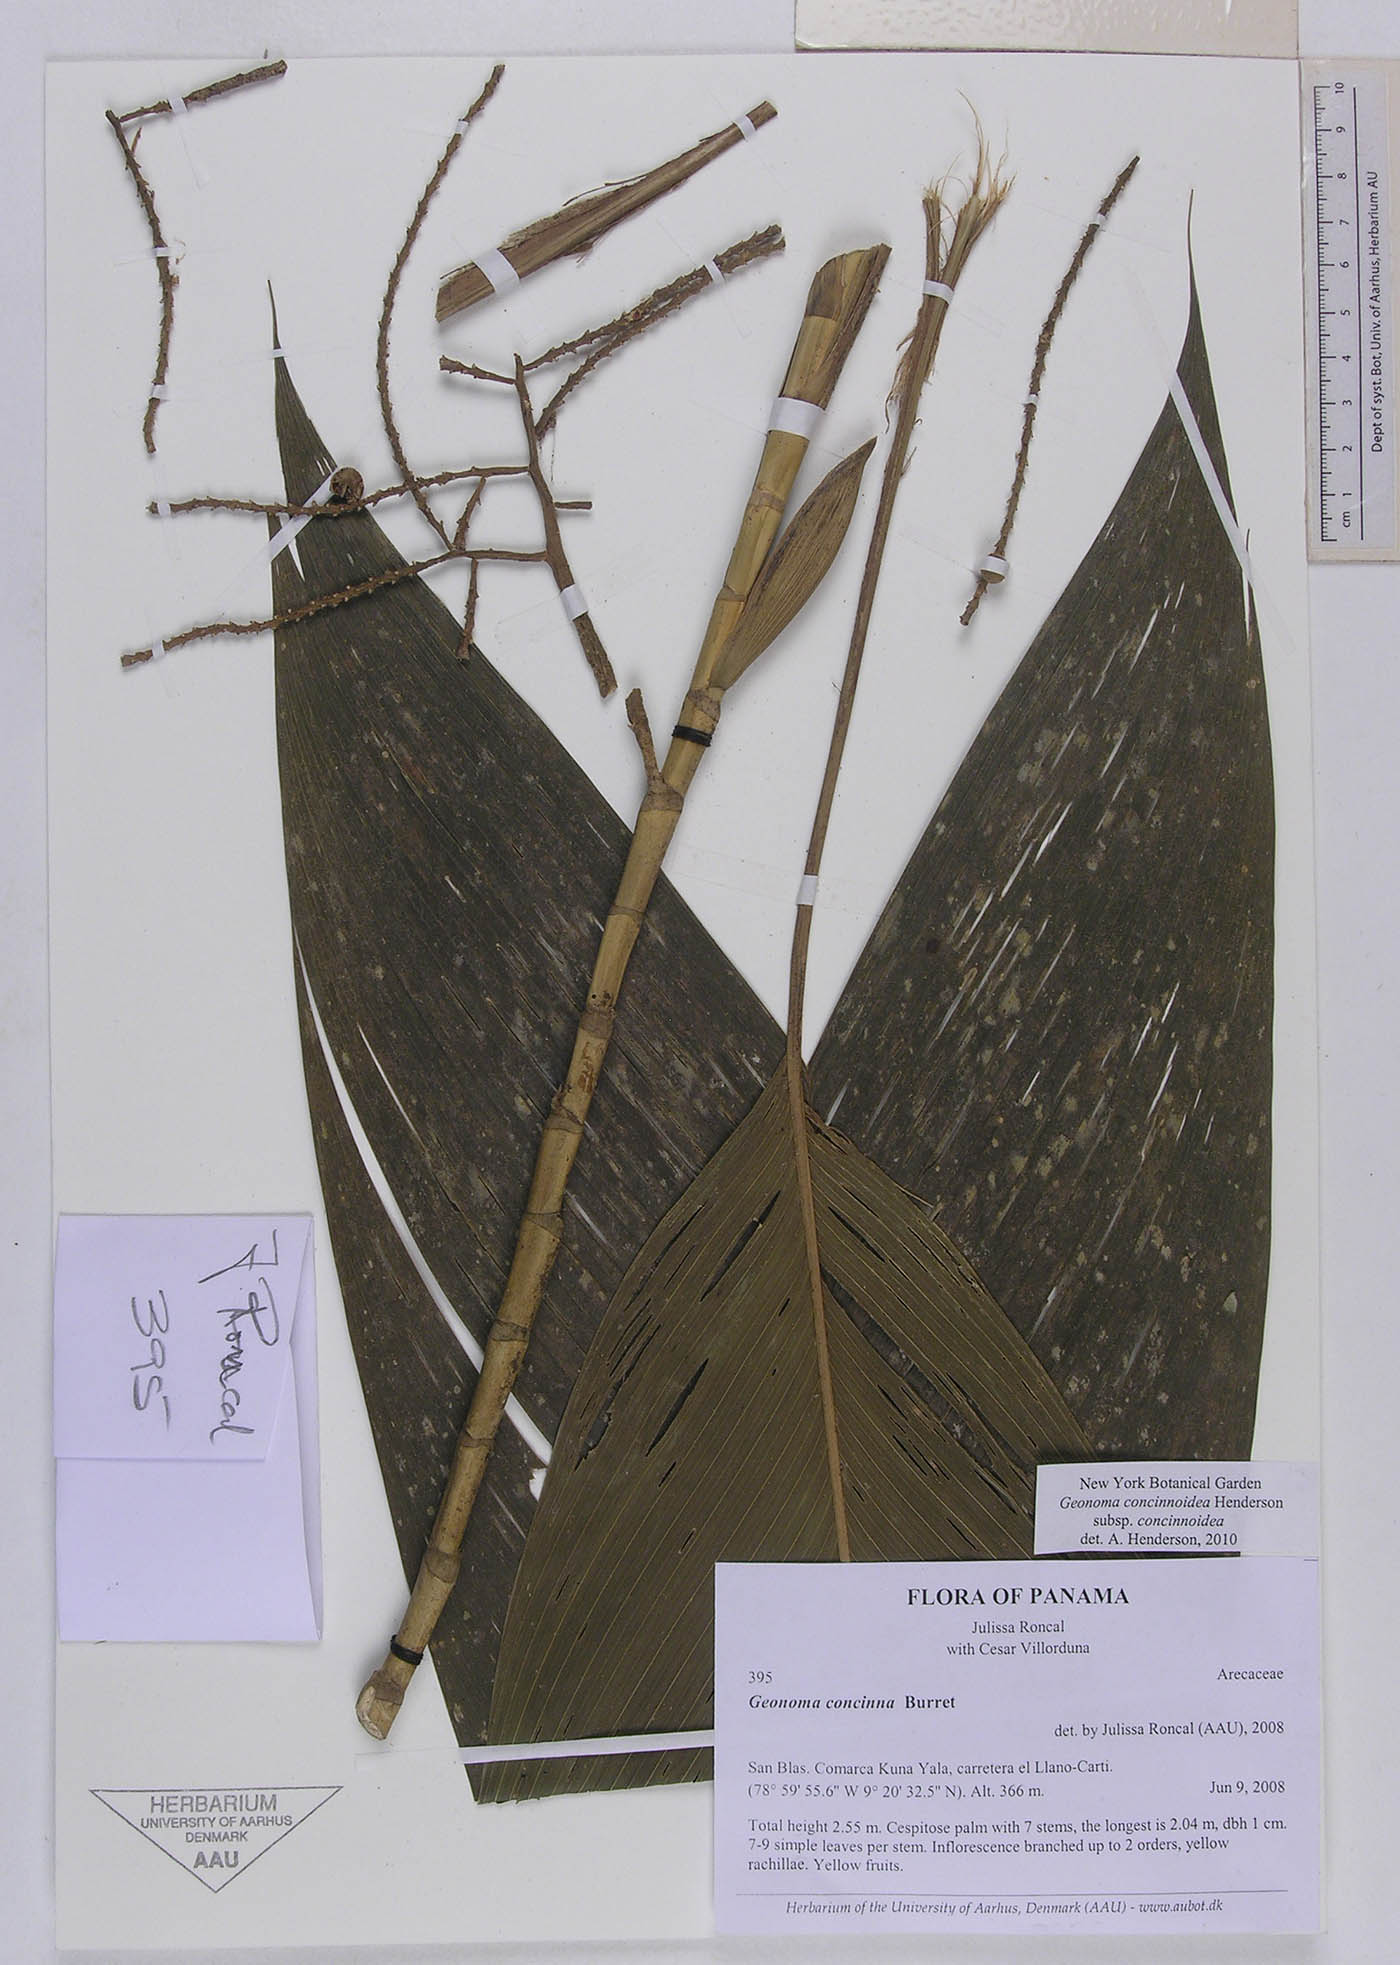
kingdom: Plantae
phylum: Tracheophyta
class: Liliopsida
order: Arecales
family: Arecaceae
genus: Geonoma
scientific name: Geonoma concinnoidea
